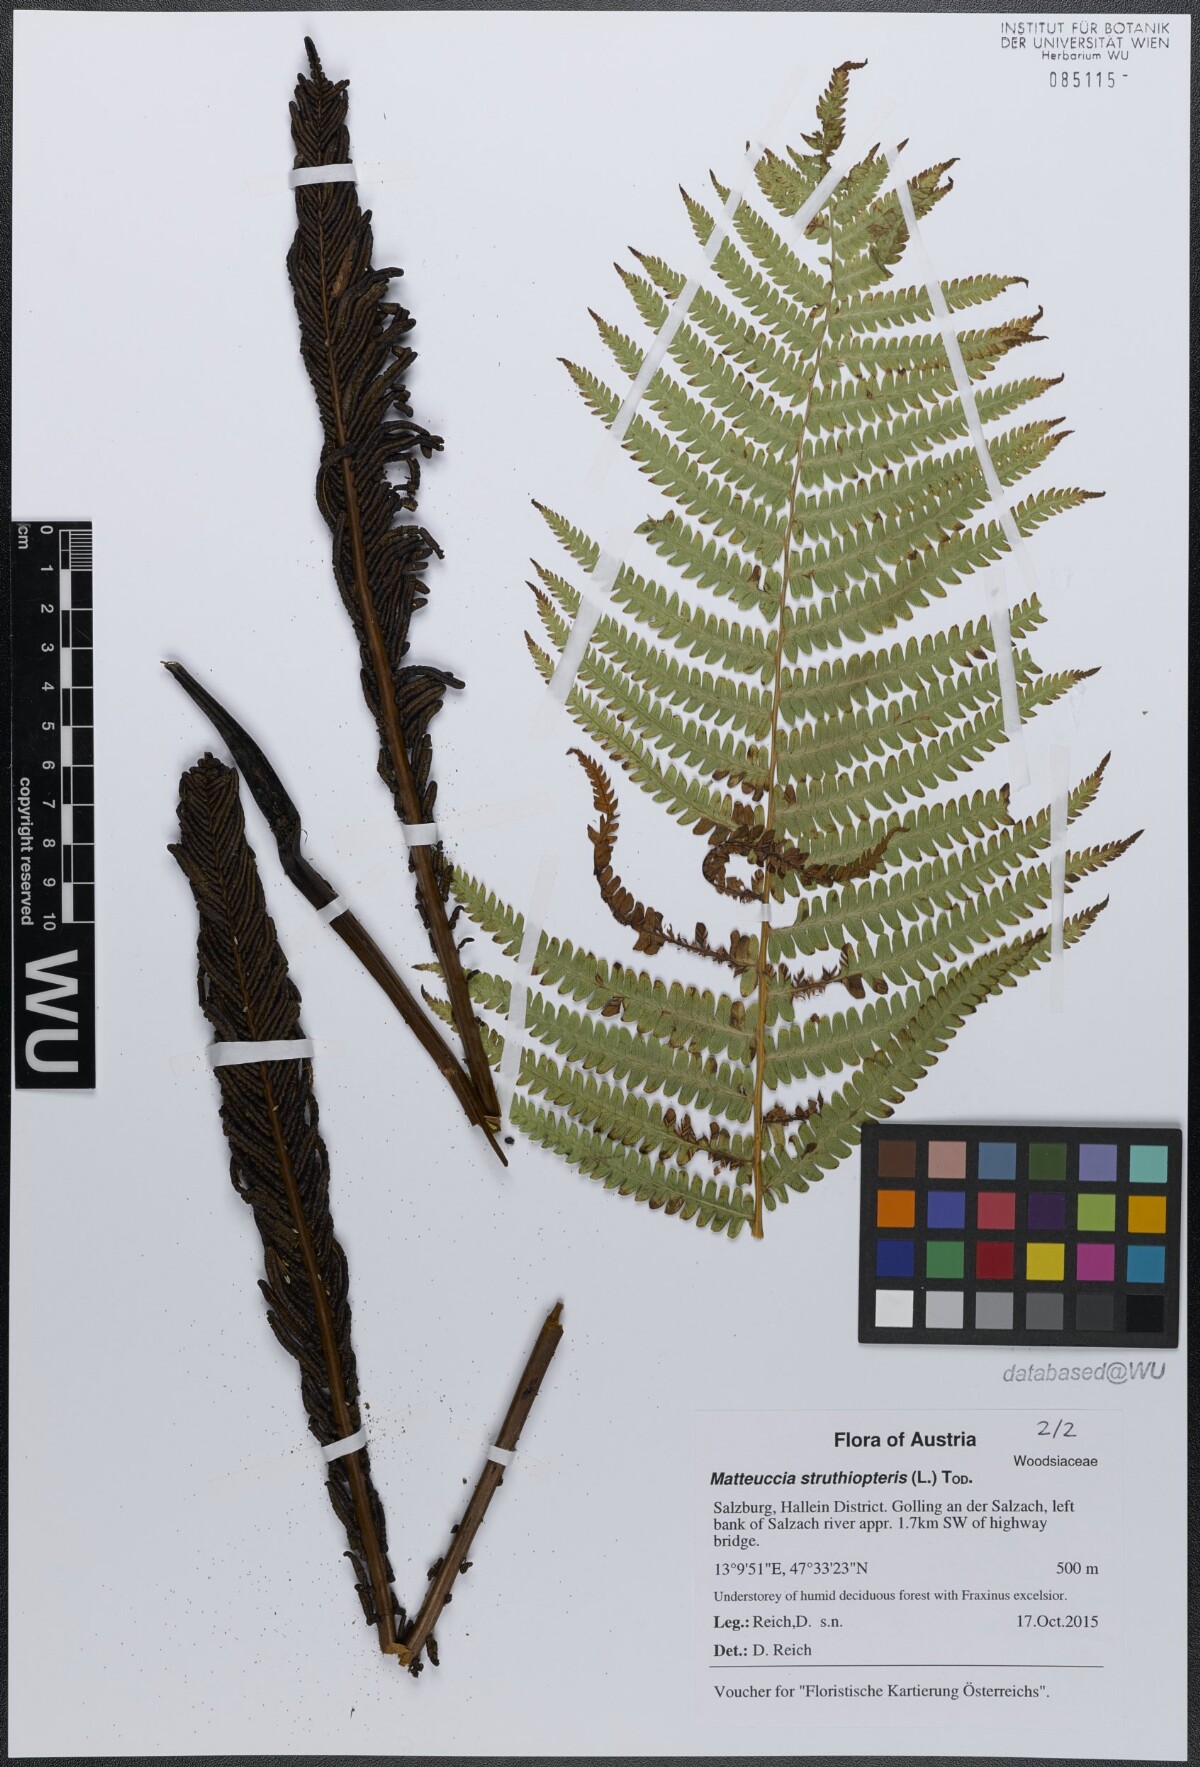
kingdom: Plantae
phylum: Tracheophyta
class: Polypodiopsida
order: Polypodiales
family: Onocleaceae
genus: Matteuccia
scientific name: Matteuccia struthiopteris
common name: Ostrich fern
